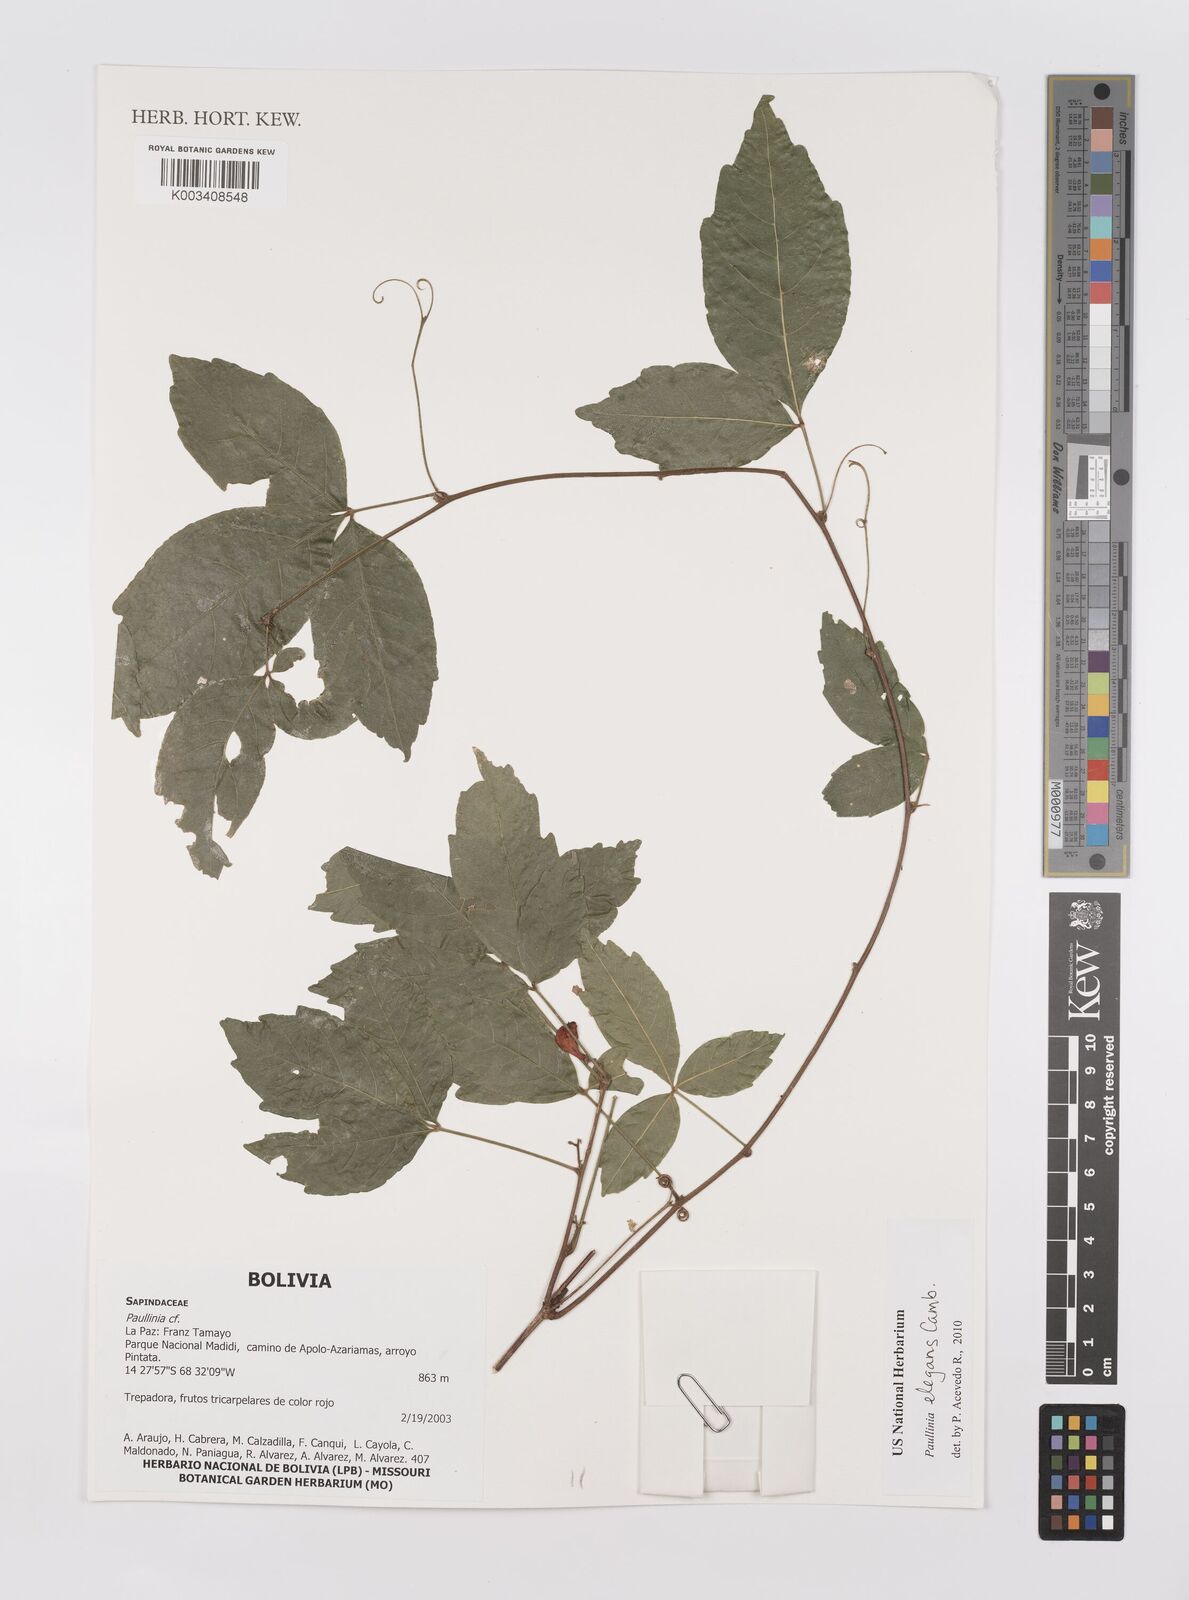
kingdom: Plantae
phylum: Tracheophyta
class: Magnoliopsida
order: Sapindales
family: Sapindaceae
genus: Paullinia
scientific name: Paullinia elegans
